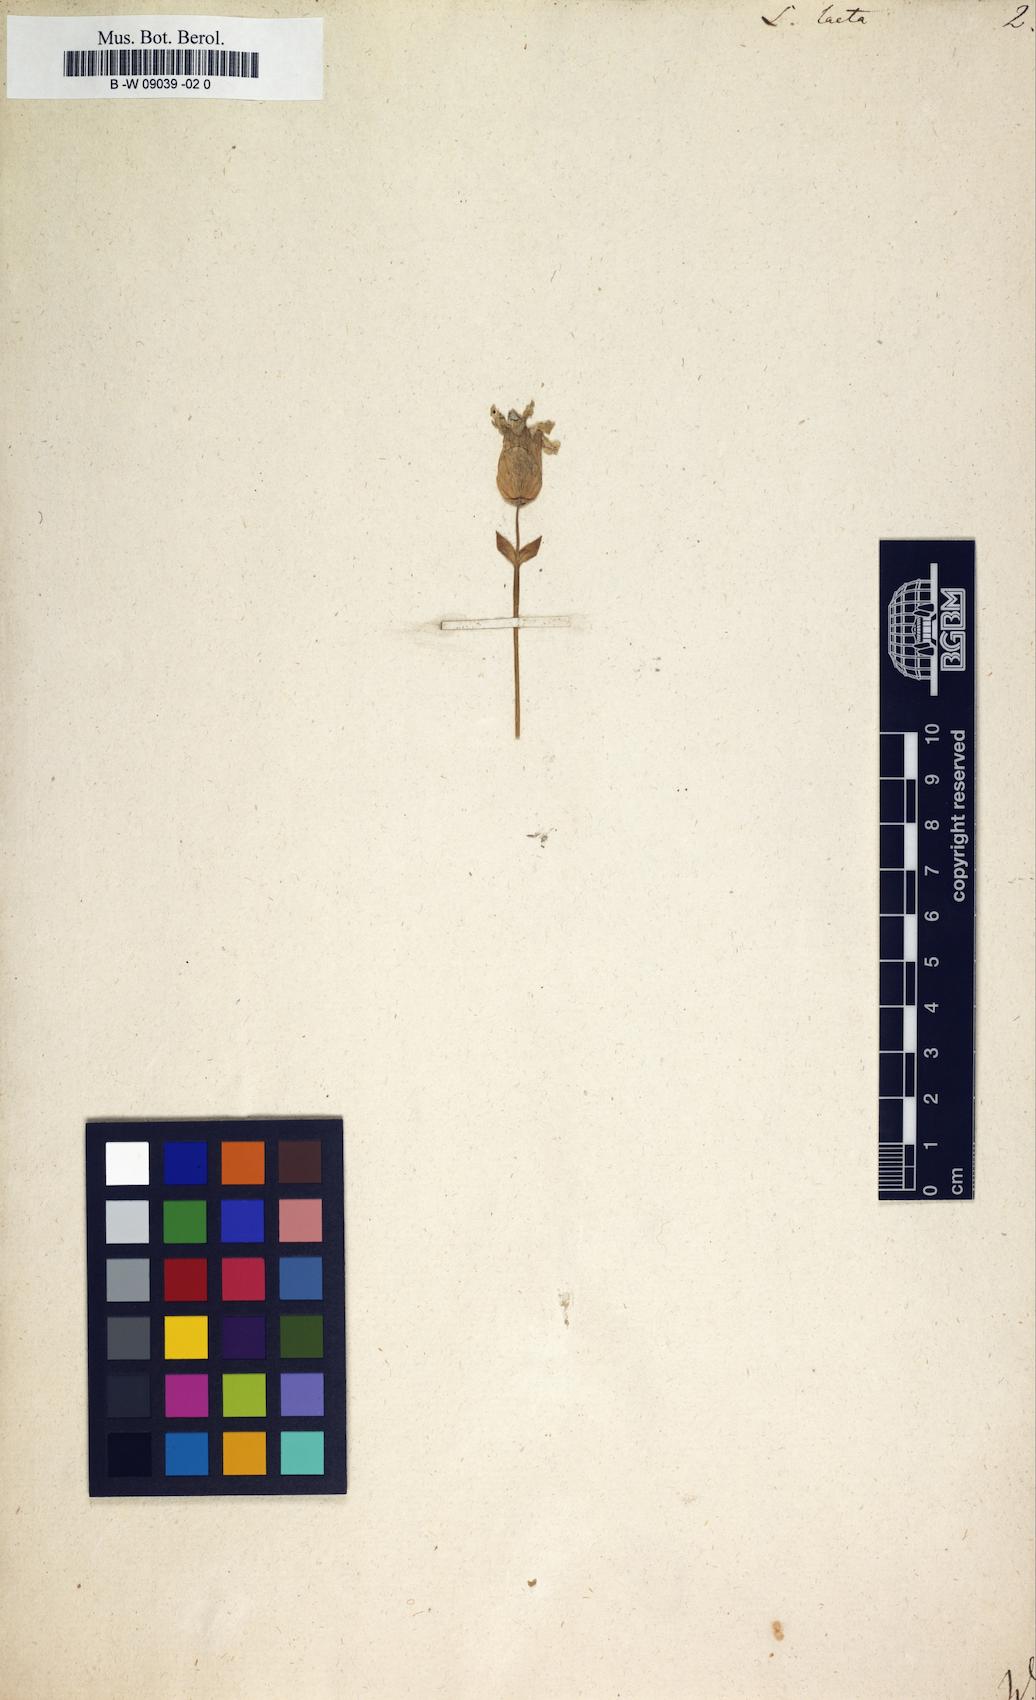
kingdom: Plantae
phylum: Tracheophyta
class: Magnoliopsida
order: Caryophyllales
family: Caryophyllaceae
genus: Eudianthe
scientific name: Eudianthe laeta
